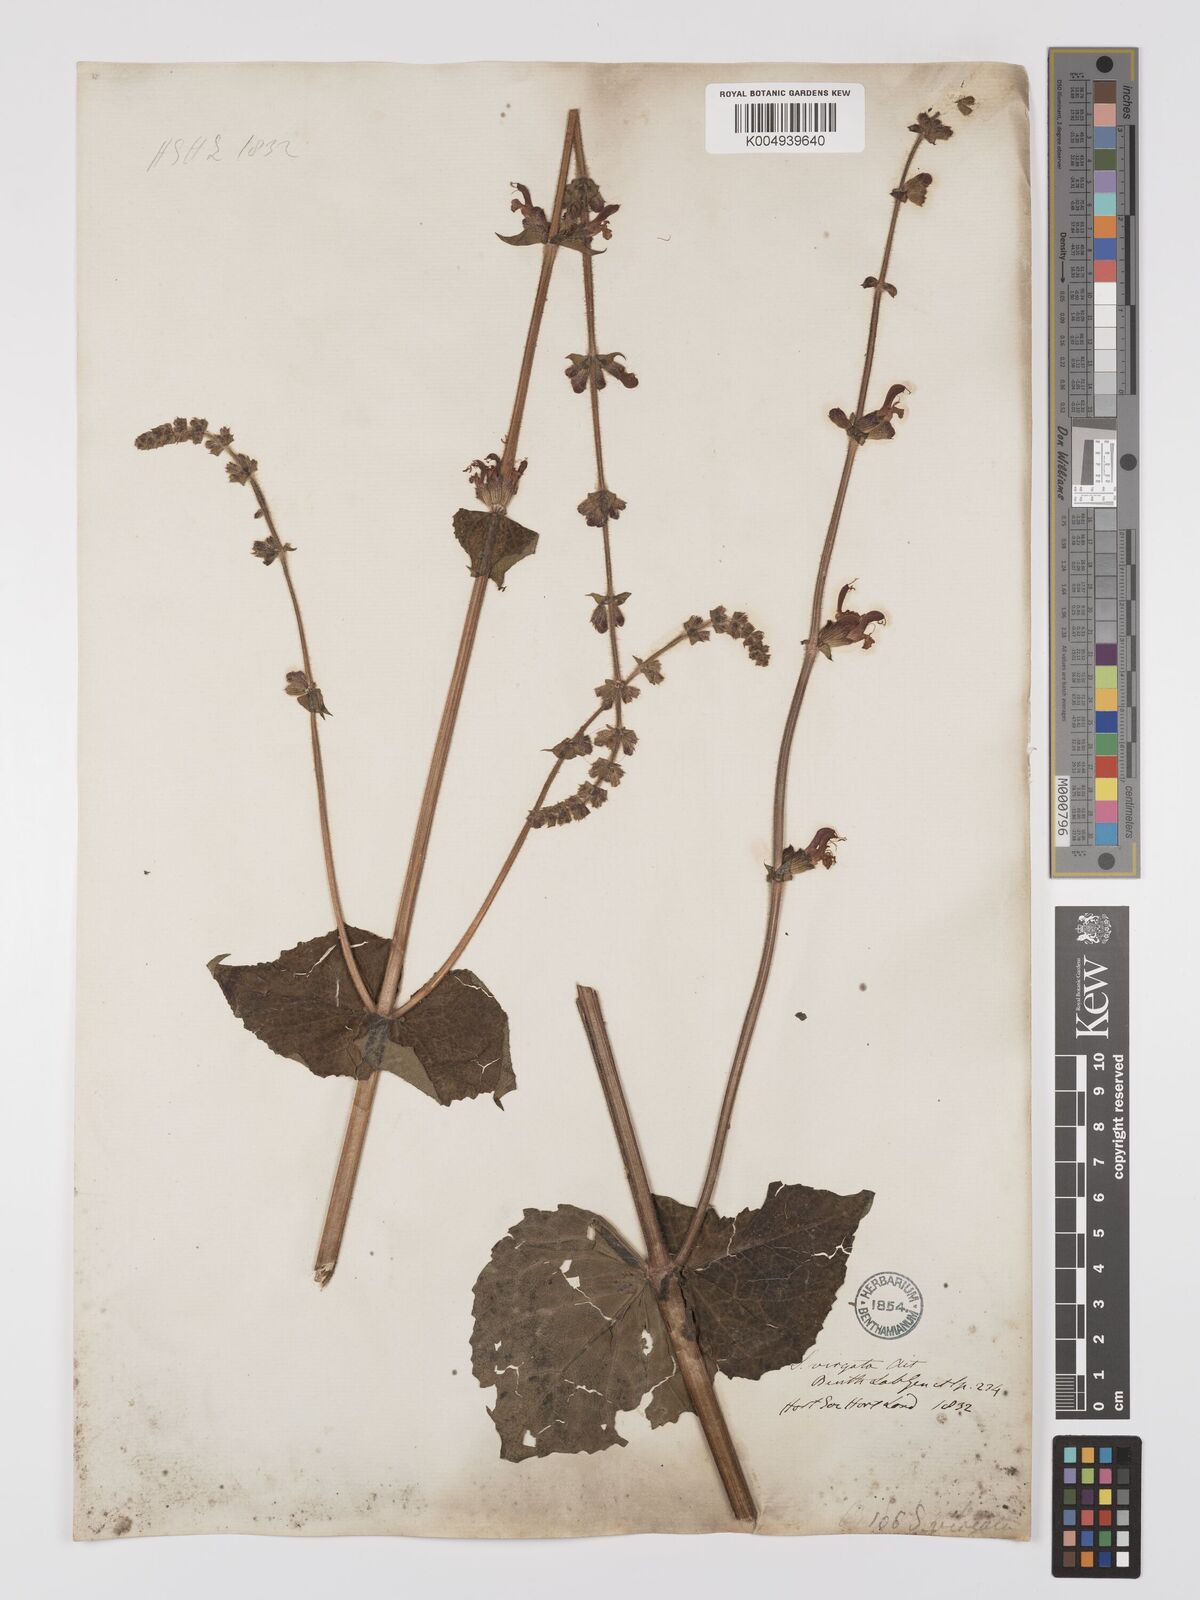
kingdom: Plantae
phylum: Tracheophyta
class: Magnoliopsida
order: Lamiales
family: Lamiaceae
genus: Salvia
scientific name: Salvia
